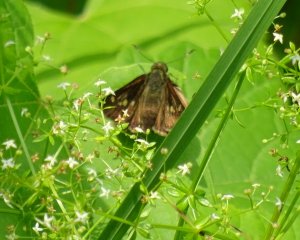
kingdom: Animalia
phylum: Arthropoda
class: Insecta
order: Lepidoptera
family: Hesperiidae
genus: Vernia
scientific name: Vernia verna
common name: Little Glassywing
